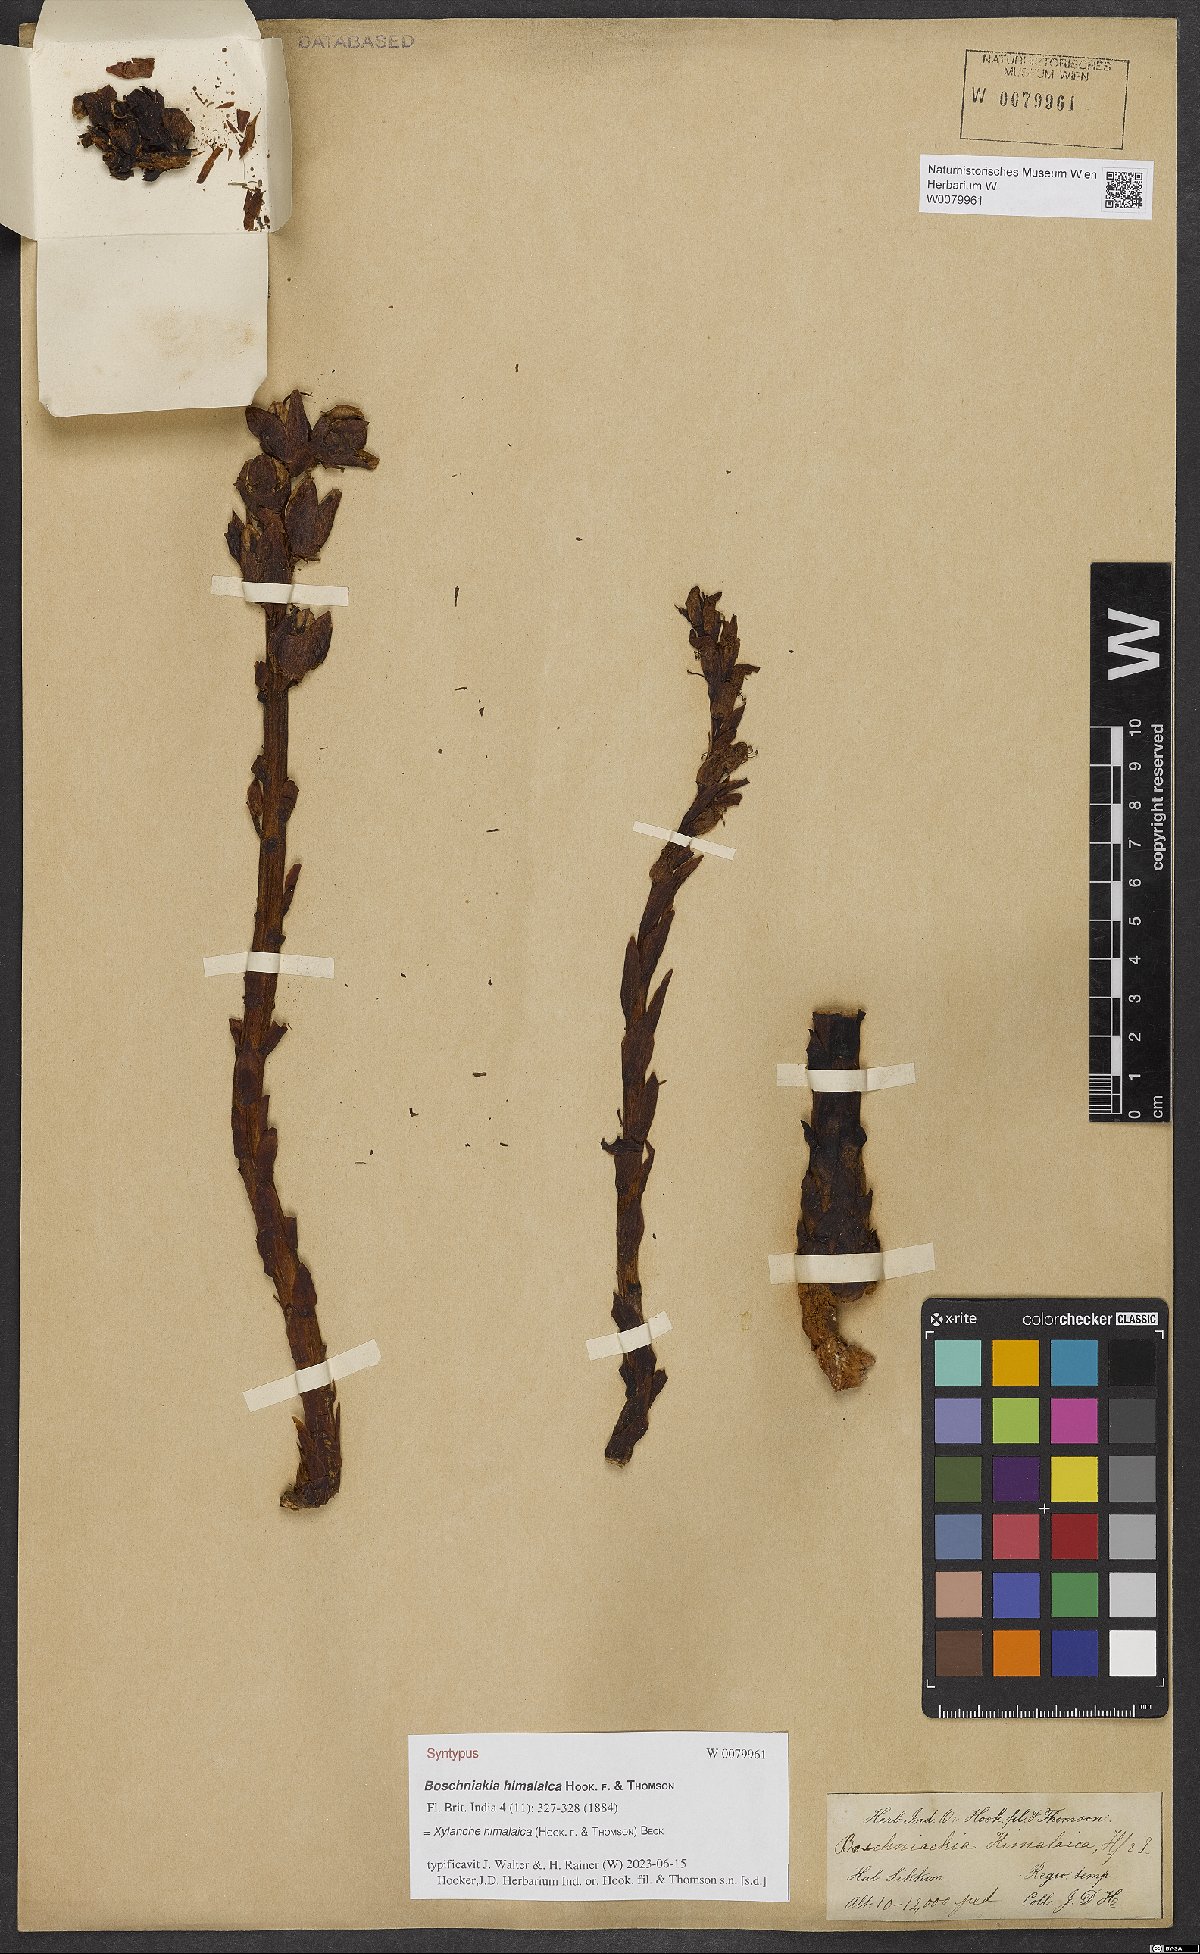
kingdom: Plantae
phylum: Tracheophyta
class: Magnoliopsida
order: Lamiales
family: Orobanchaceae
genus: Boschniakia
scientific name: Boschniakia himalaica
